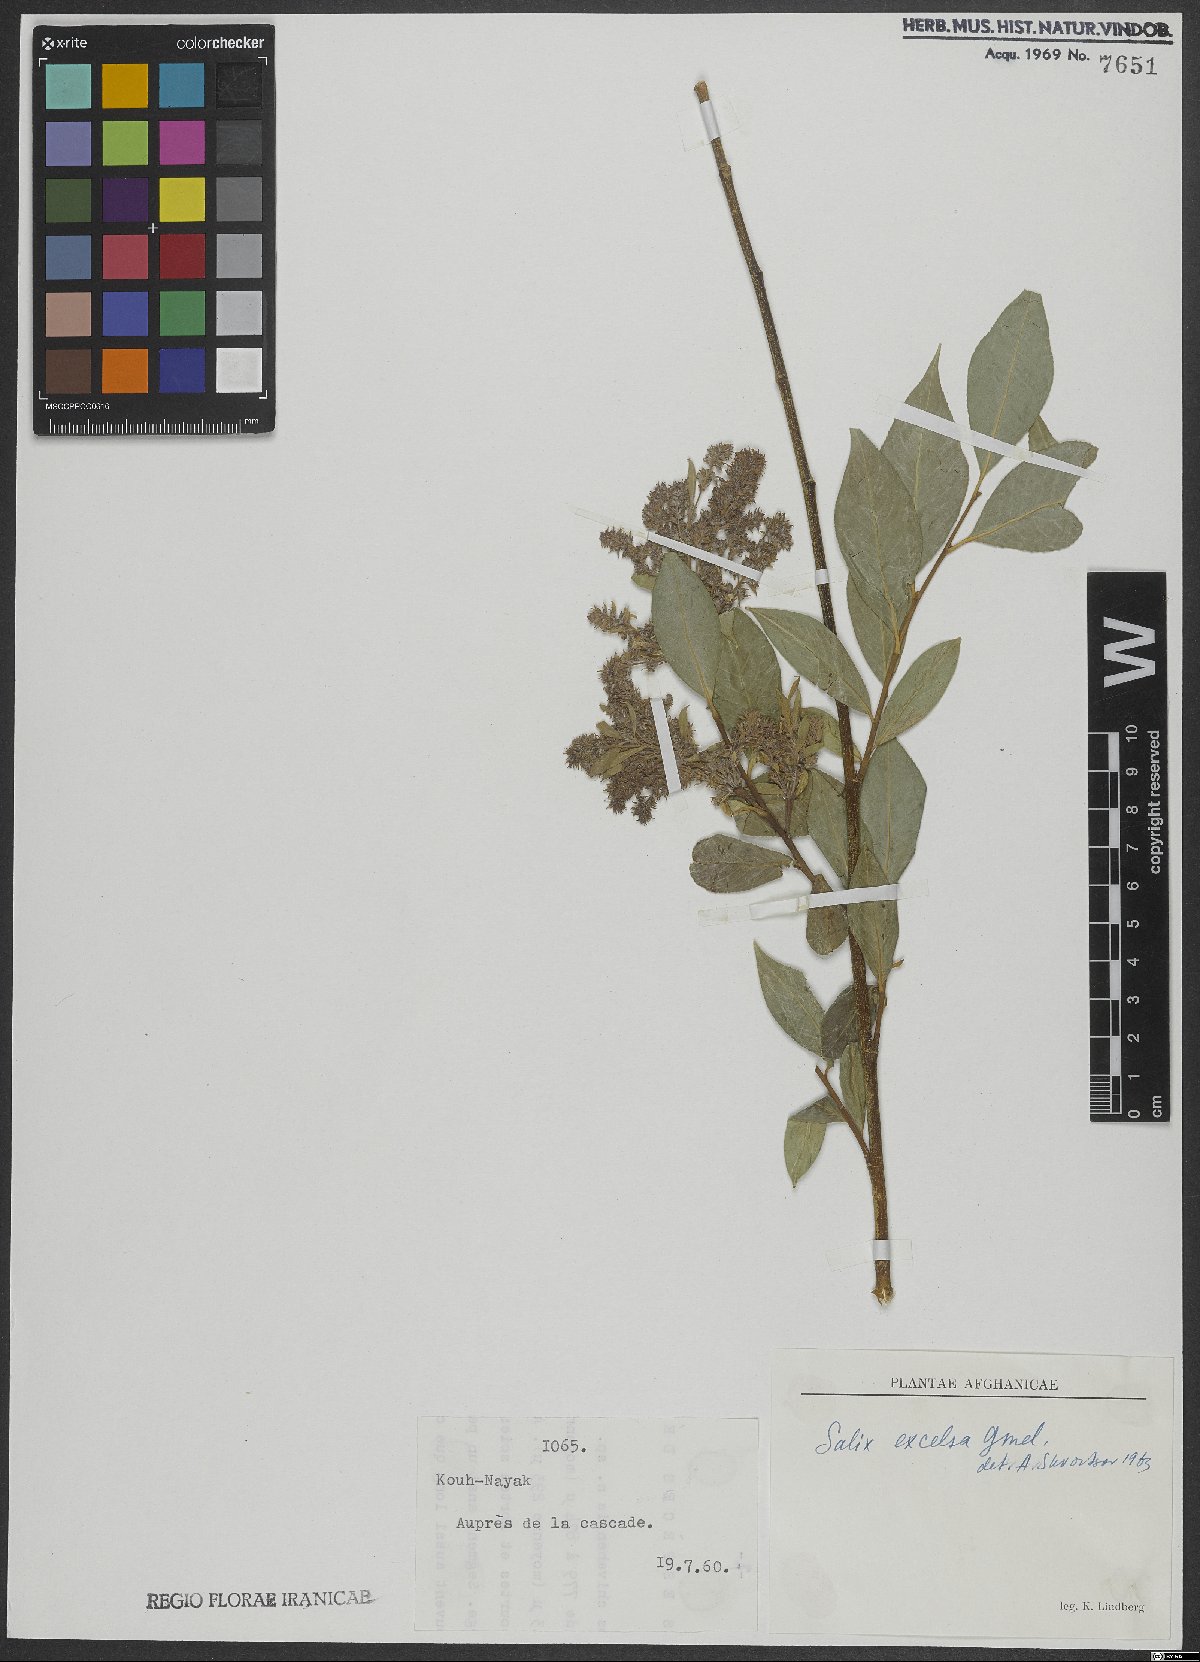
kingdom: Plantae
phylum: Tracheophyta
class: Magnoliopsida
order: Malpighiales
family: Salicaceae
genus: Salix
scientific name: Salix excelsa
